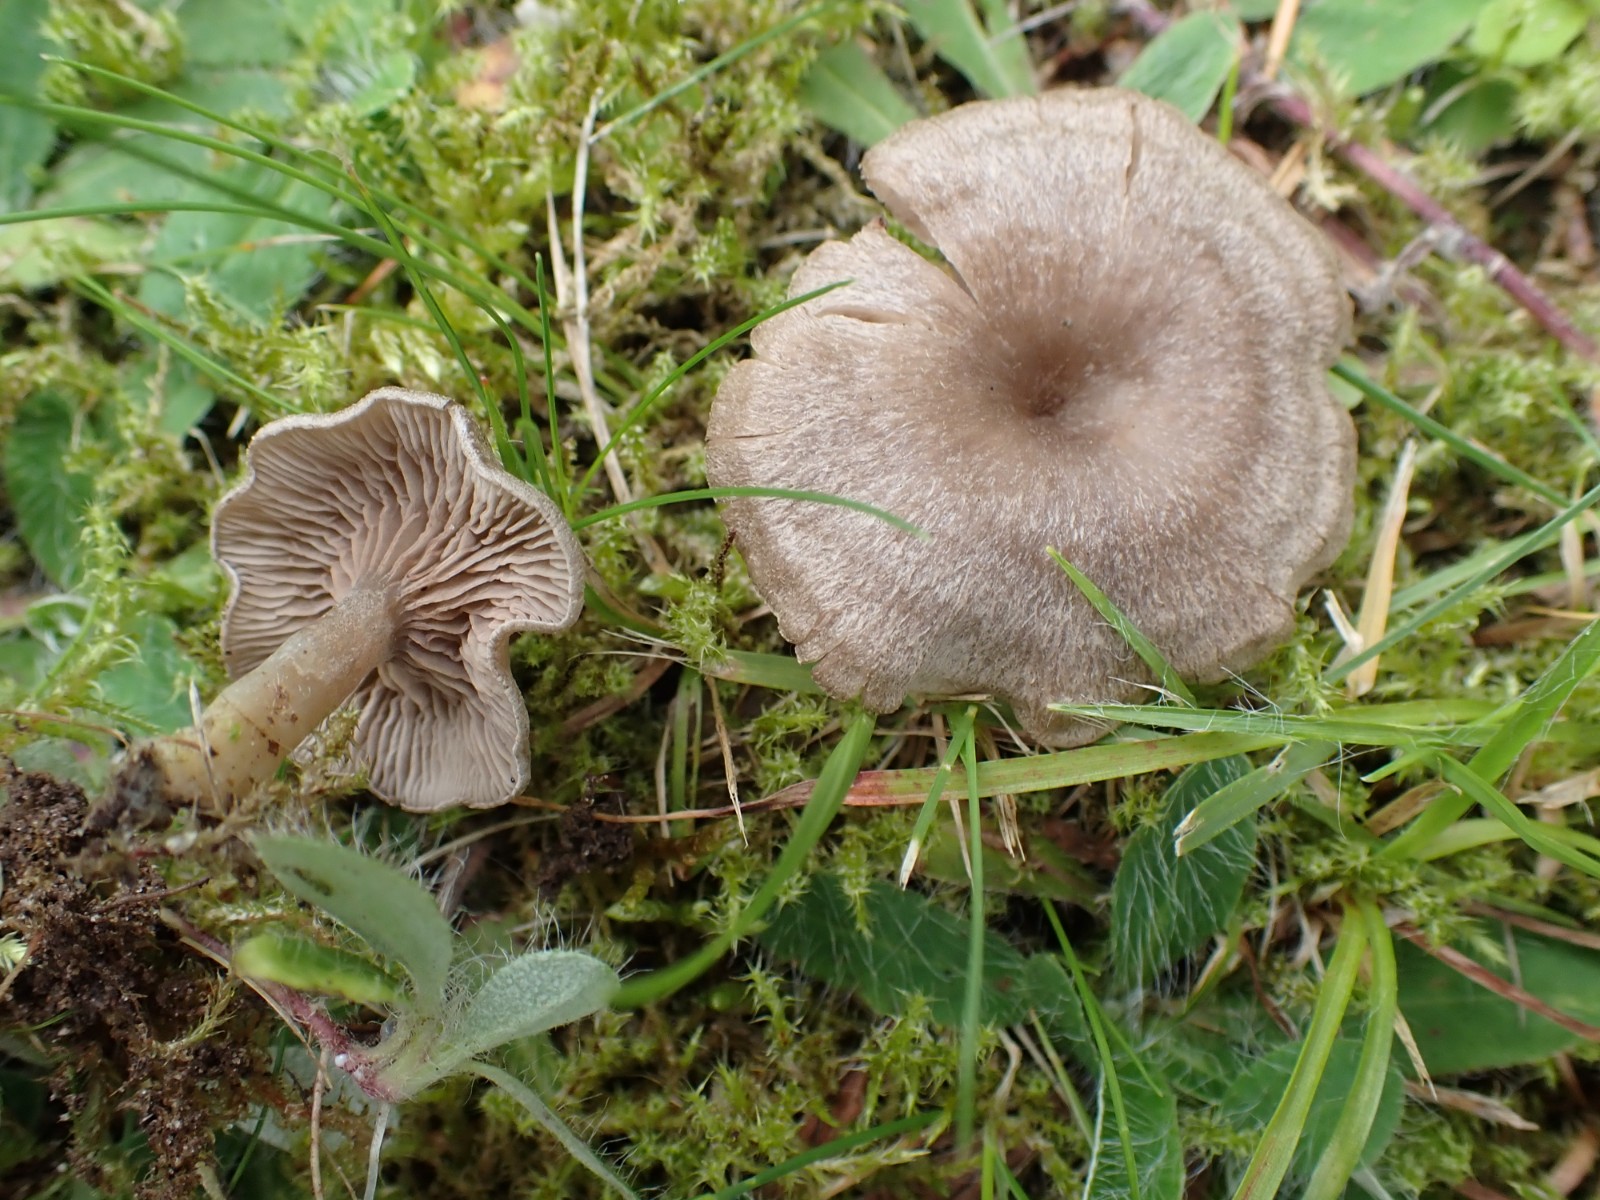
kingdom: Fungi
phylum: Basidiomycota
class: Agaricomycetes
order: Agaricales
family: Entolomataceae
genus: Entoloma
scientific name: Entoloma undatum
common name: bæltet rødblad
